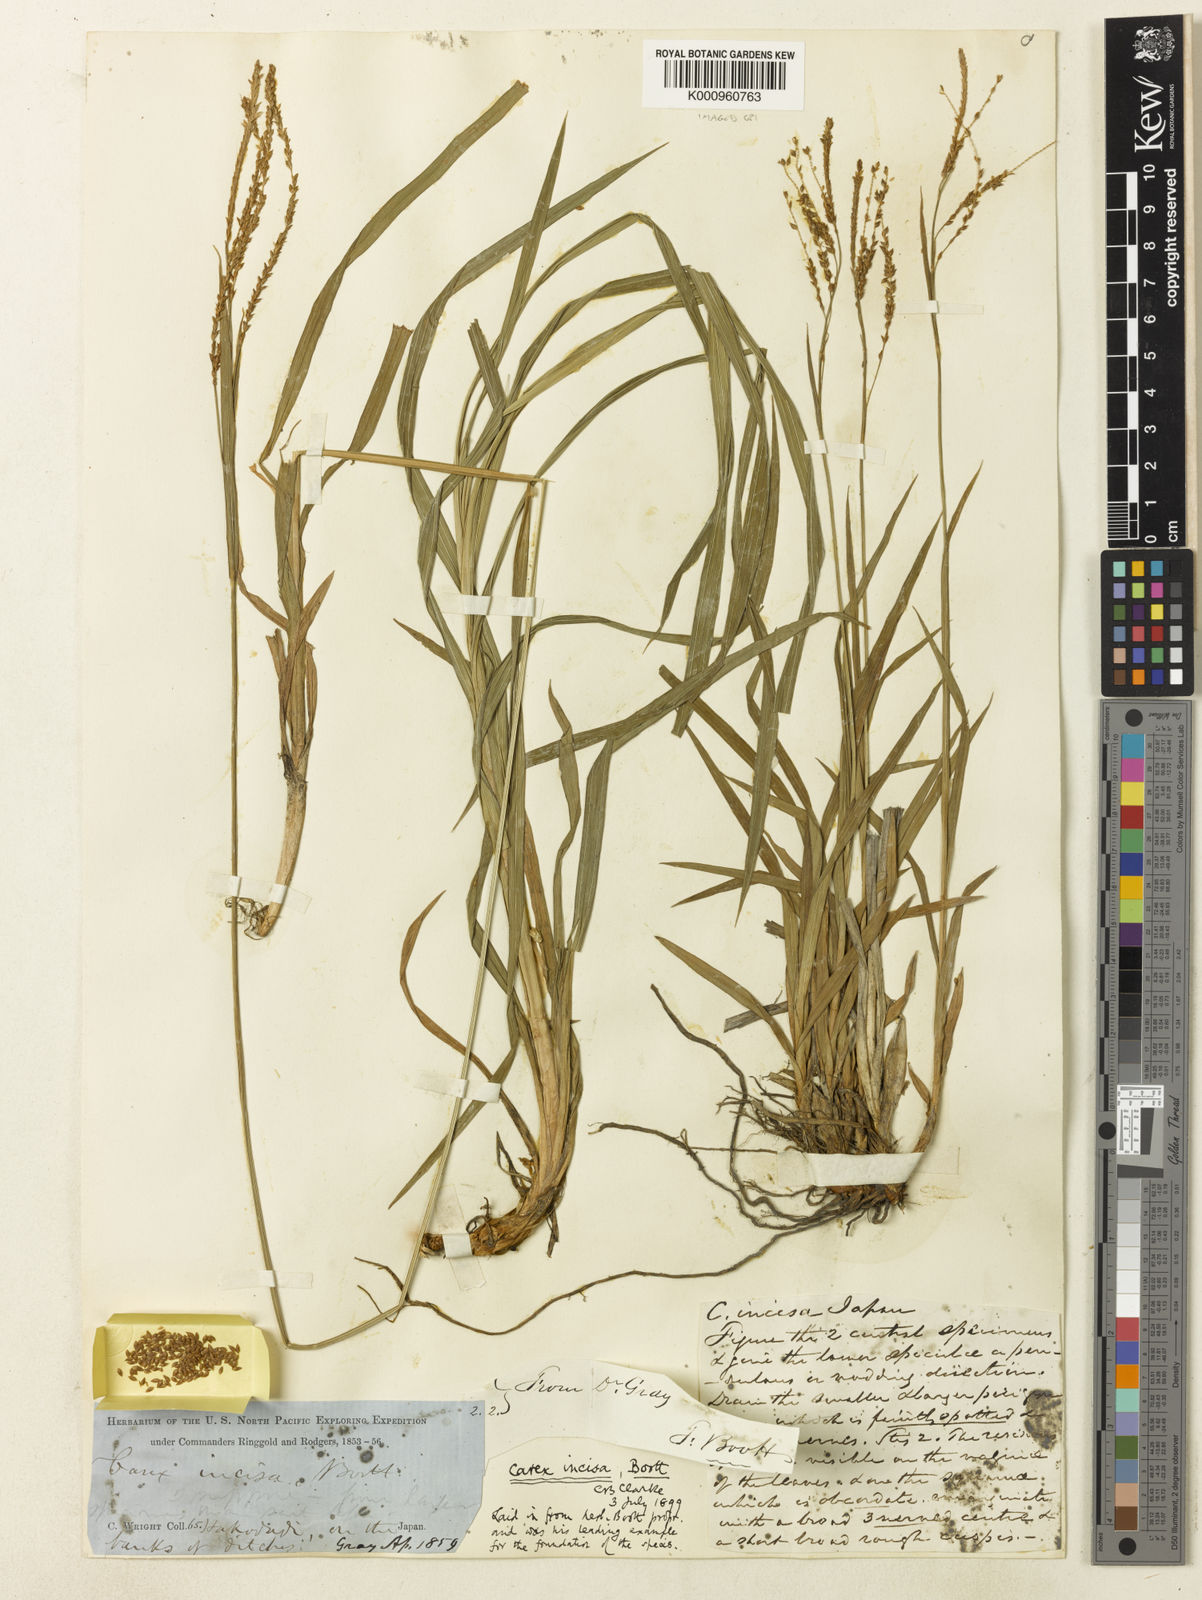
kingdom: Plantae
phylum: Tracheophyta
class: Liliopsida
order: Poales
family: Cyperaceae
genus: Carex
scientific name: Carex incisa
